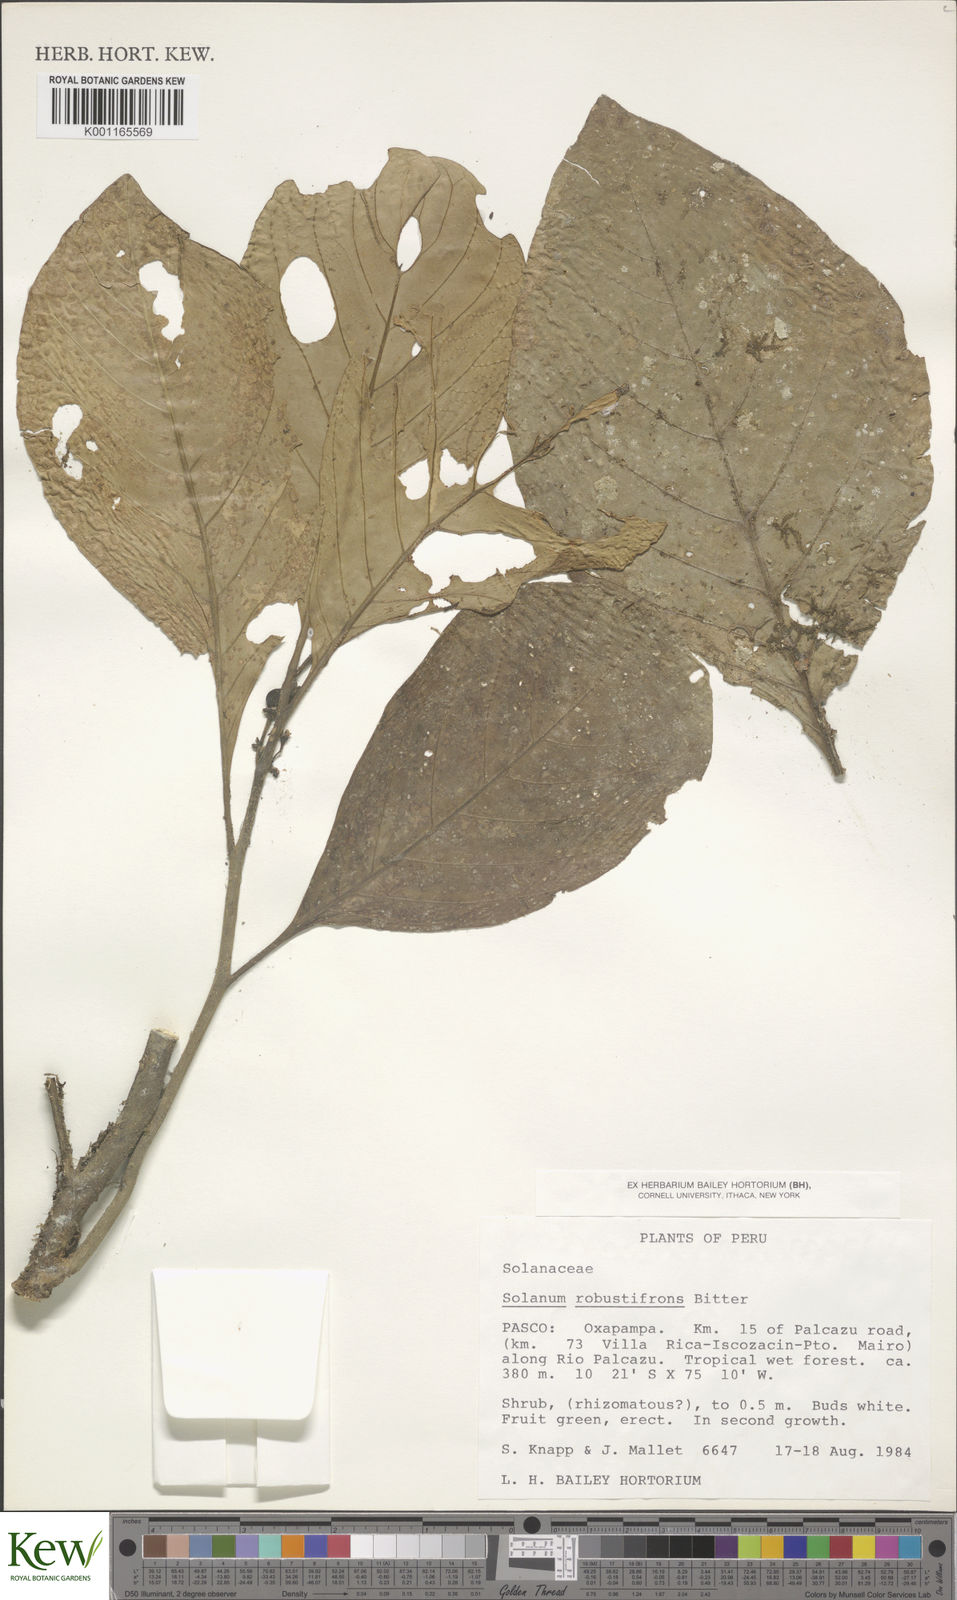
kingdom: Plantae
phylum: Tracheophyta
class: Magnoliopsida
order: Solanales
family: Solanaceae
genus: Solanum
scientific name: Solanum robustifrons
